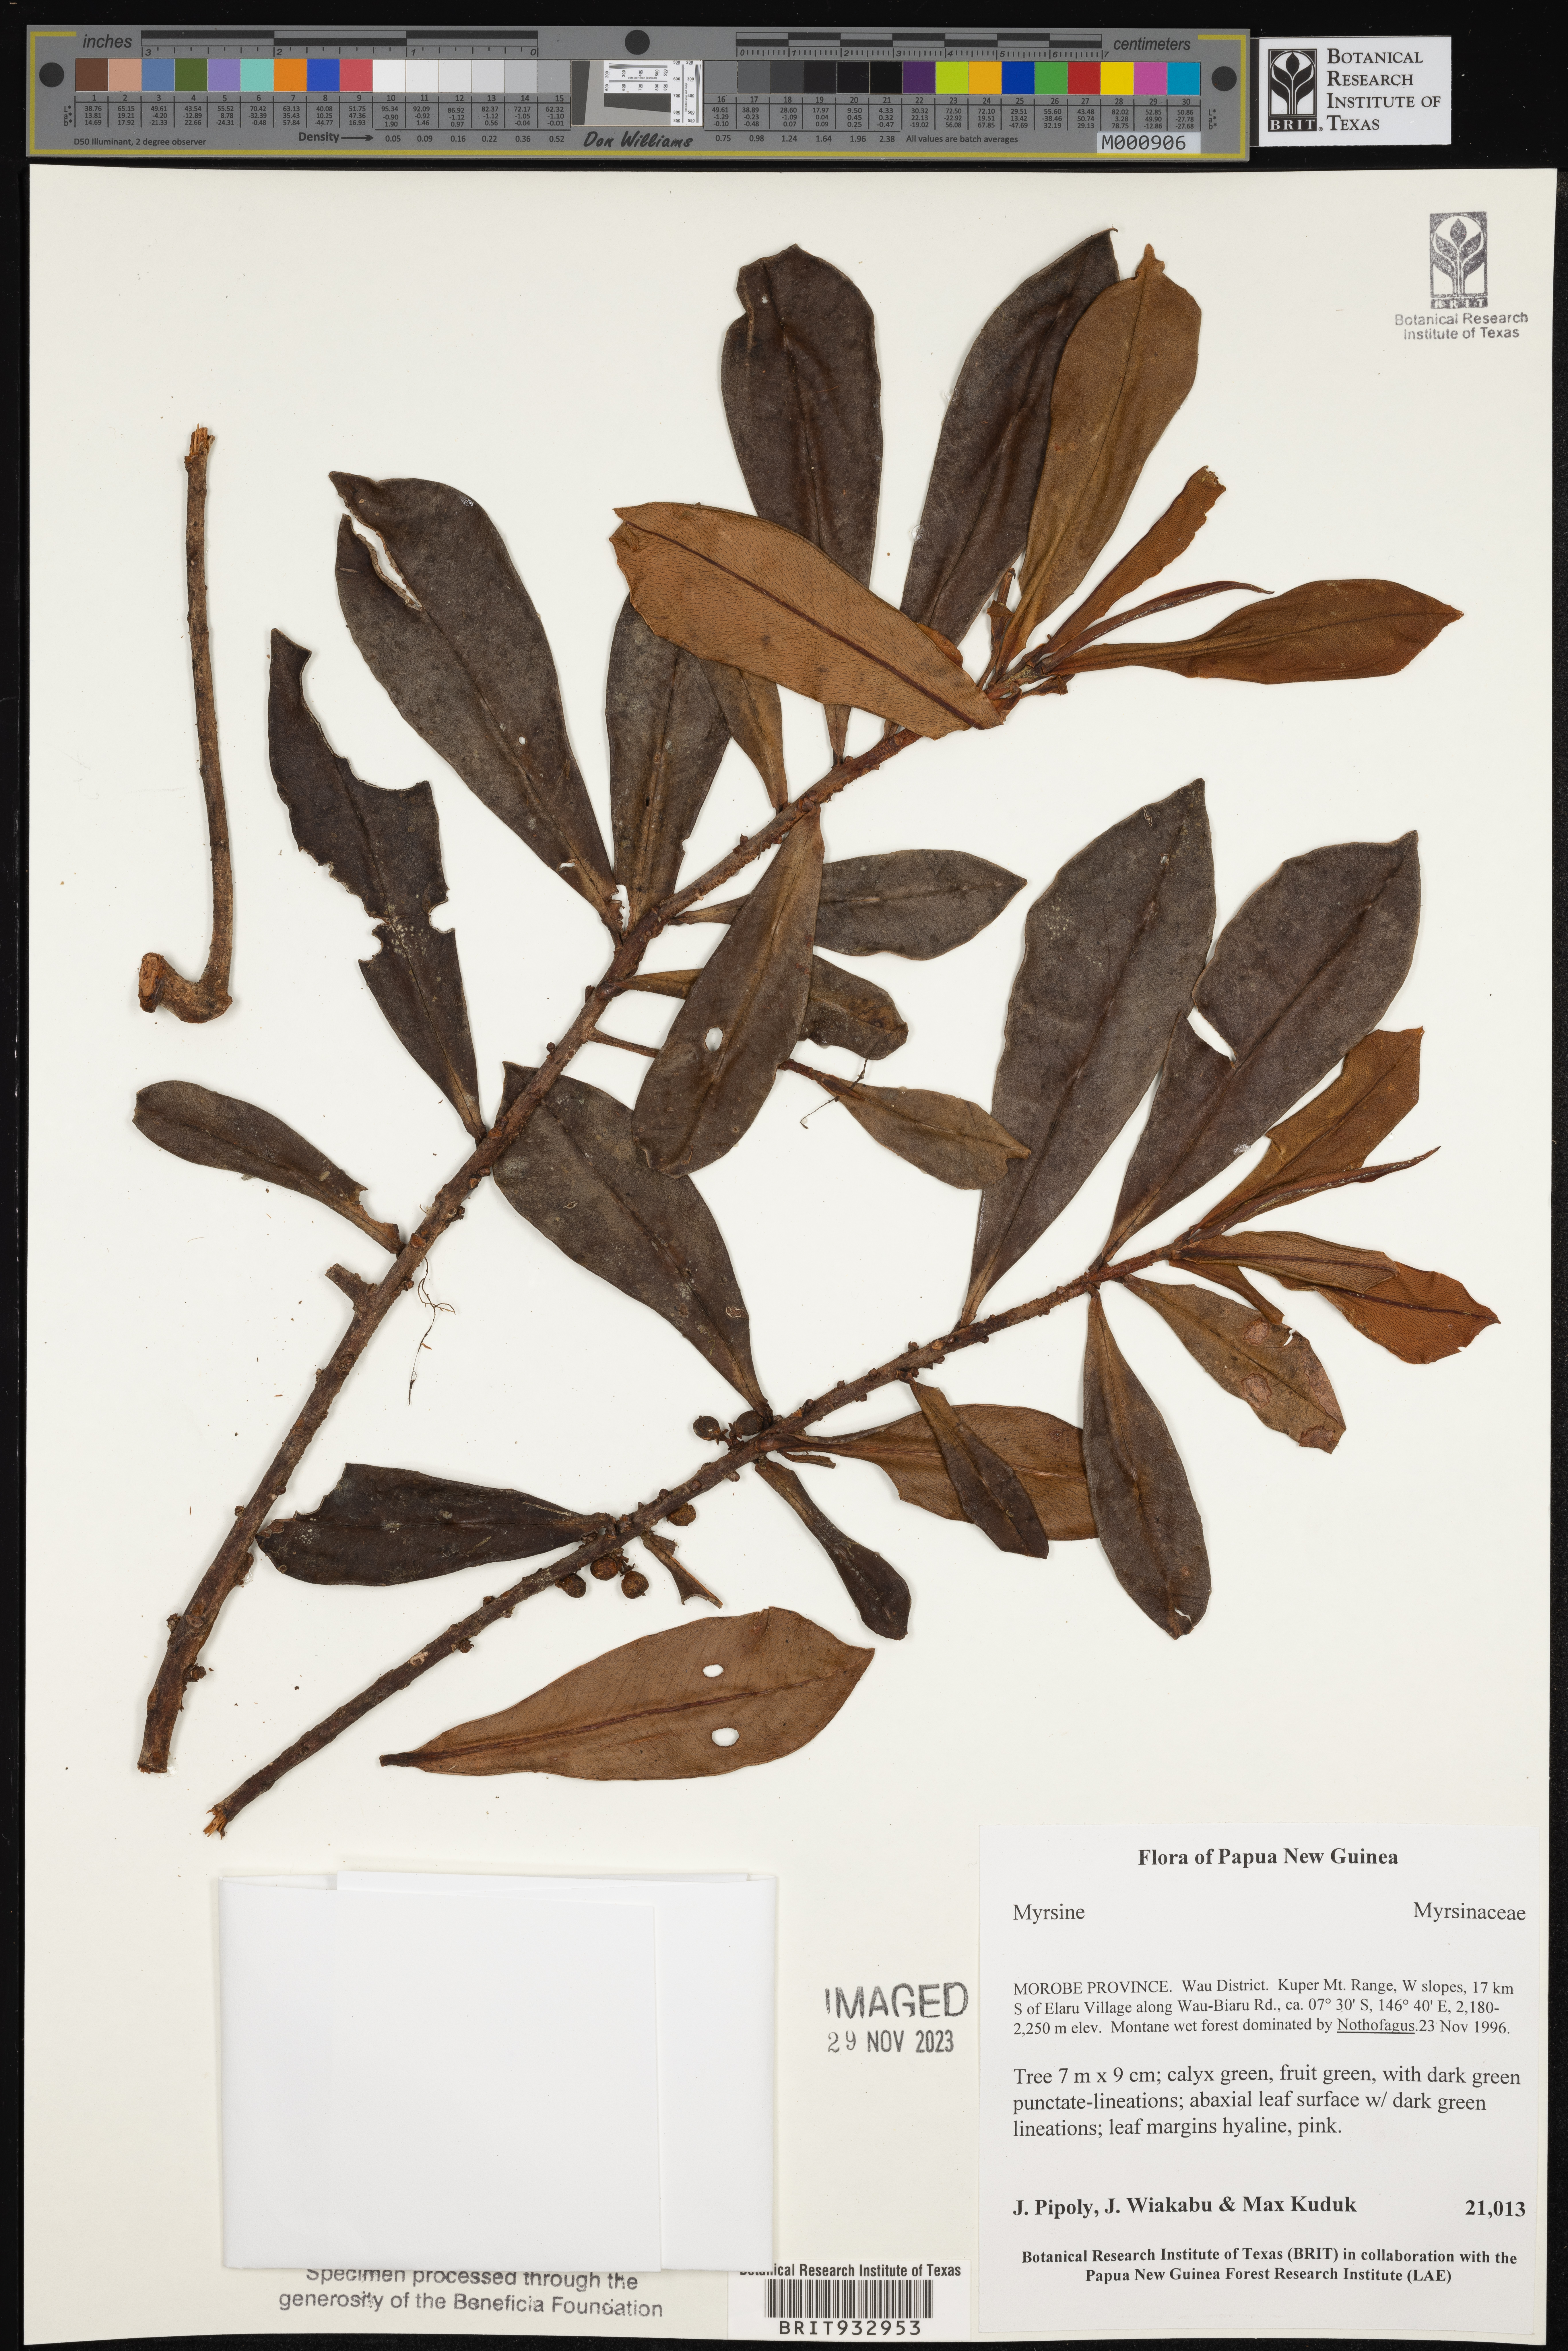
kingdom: Plantae
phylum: Tracheophyta
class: Magnoliopsida
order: Ericales
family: Primulaceae
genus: Myrsine
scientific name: Myrsine
